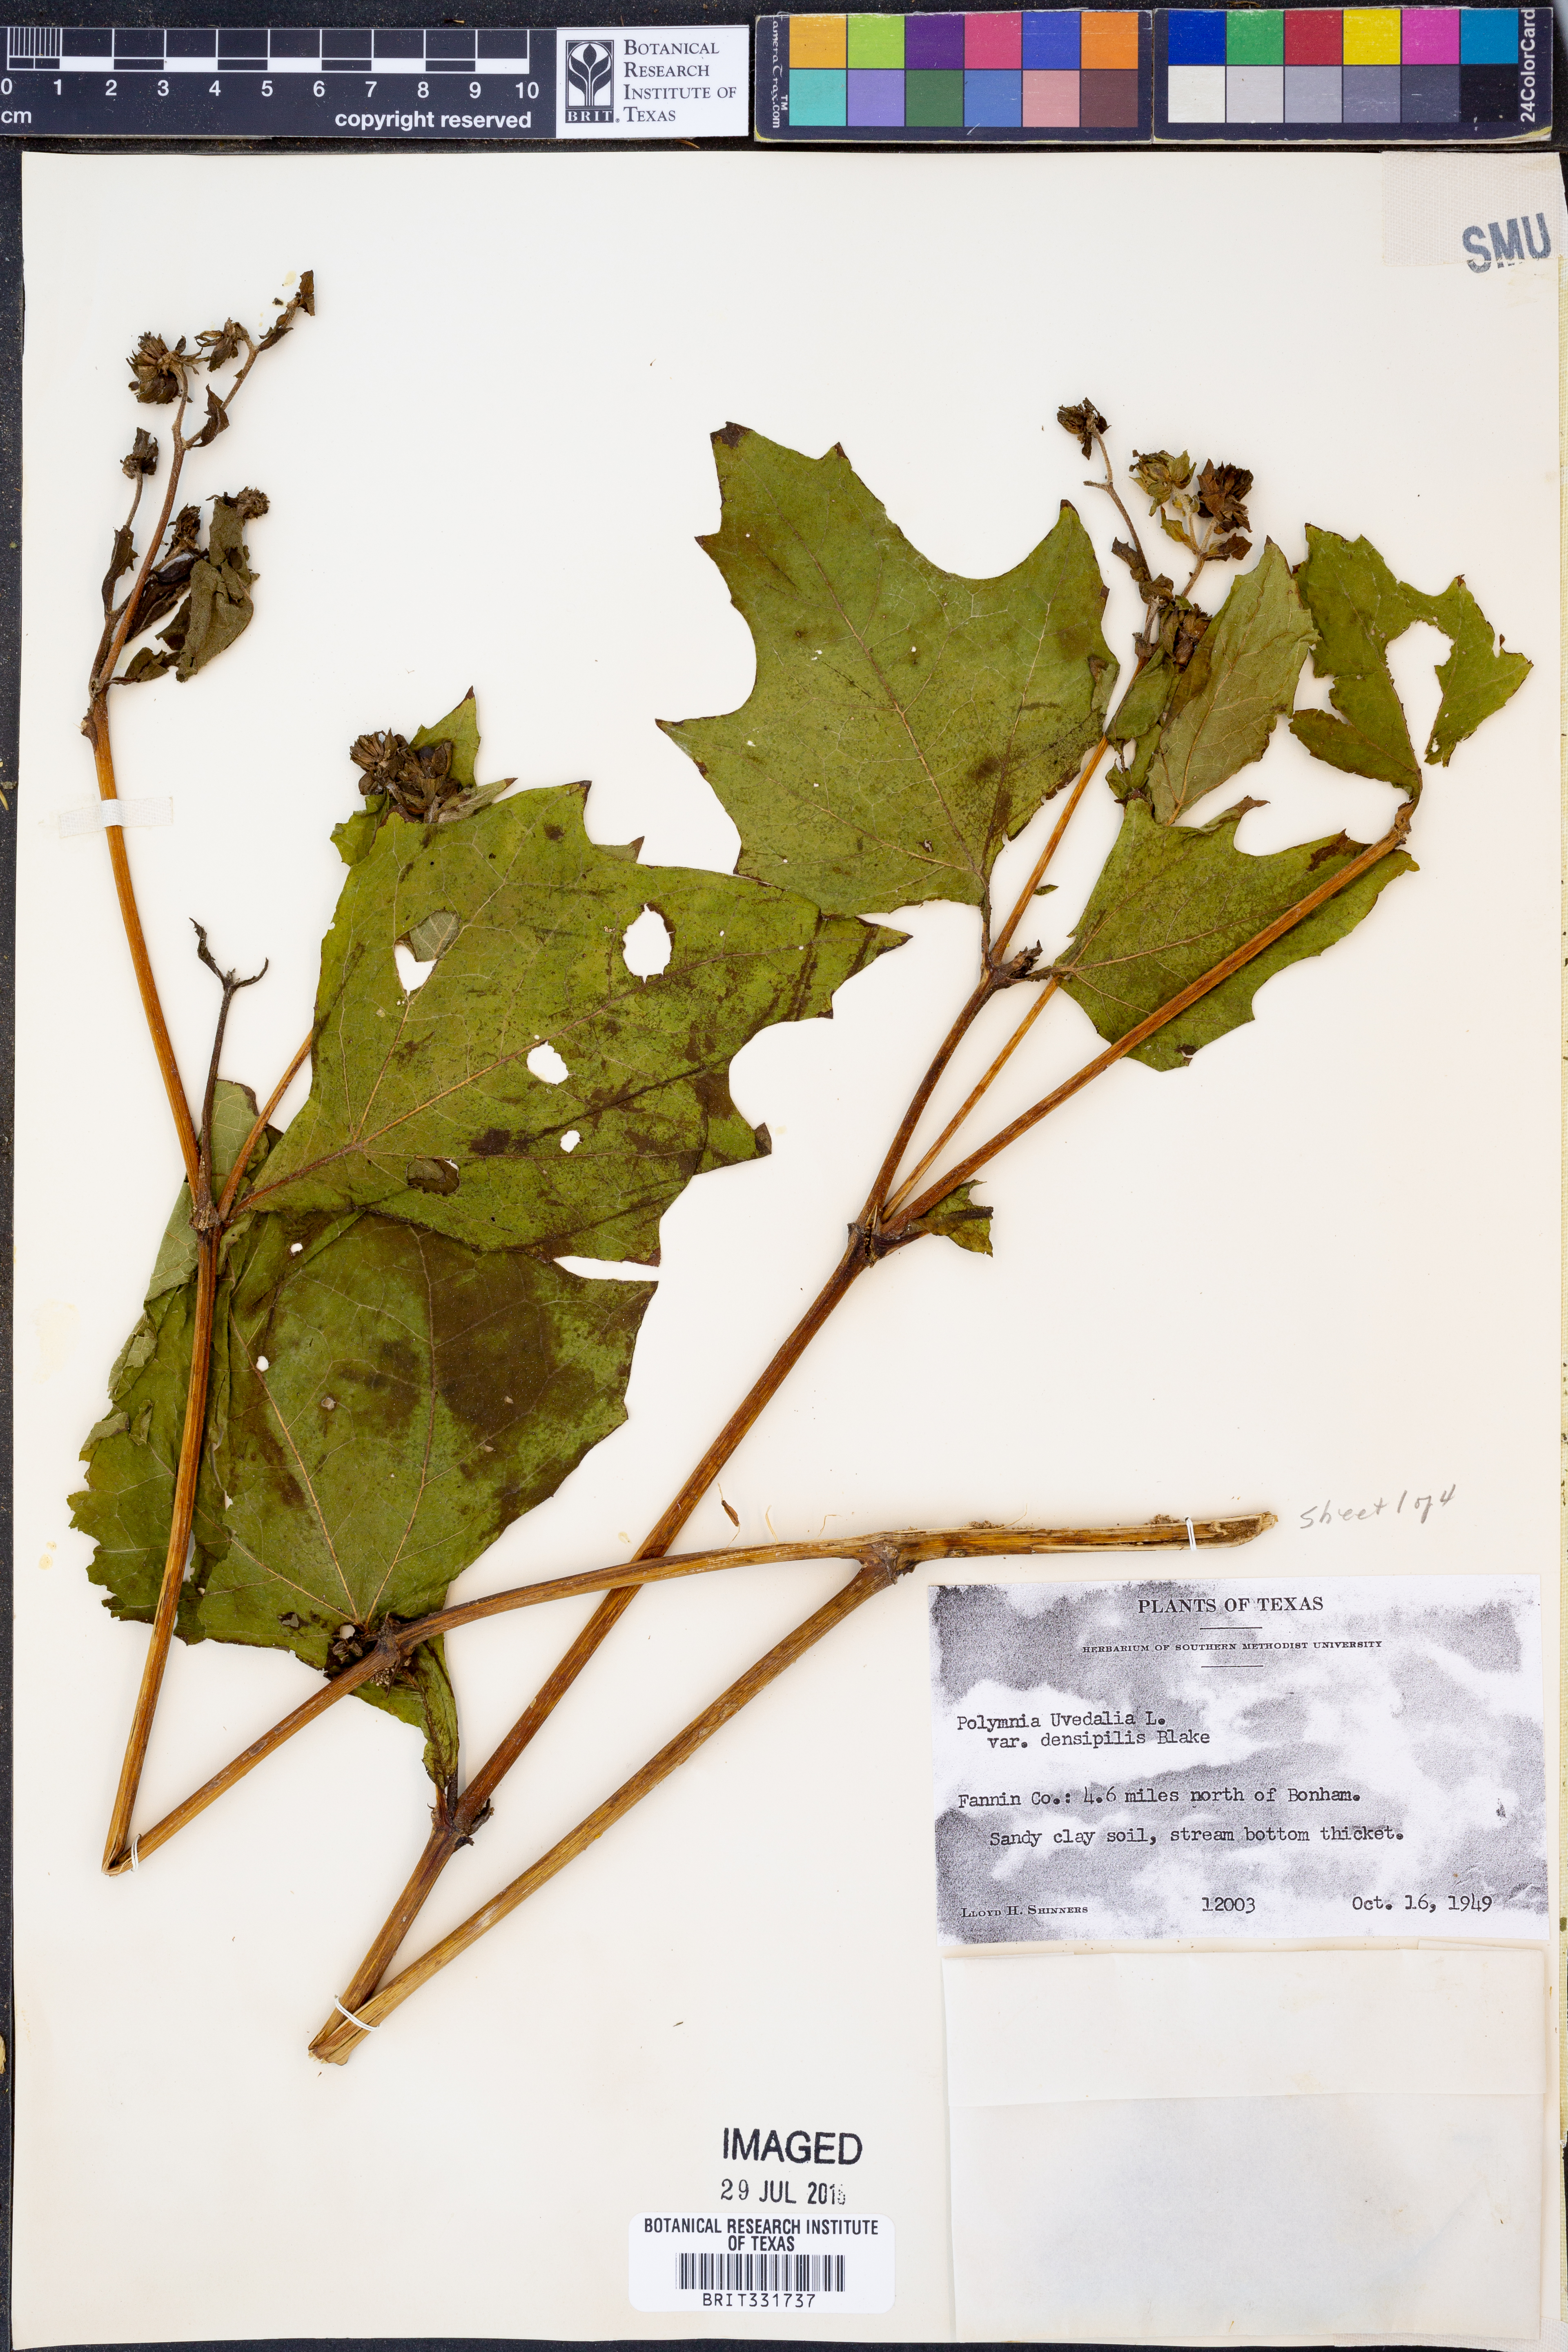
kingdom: Plantae
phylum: Tracheophyta
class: Magnoliopsida
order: Asterales
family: Asteraceae
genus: Smallanthus
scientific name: Smallanthus uvedalia
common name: Bear's-foot
